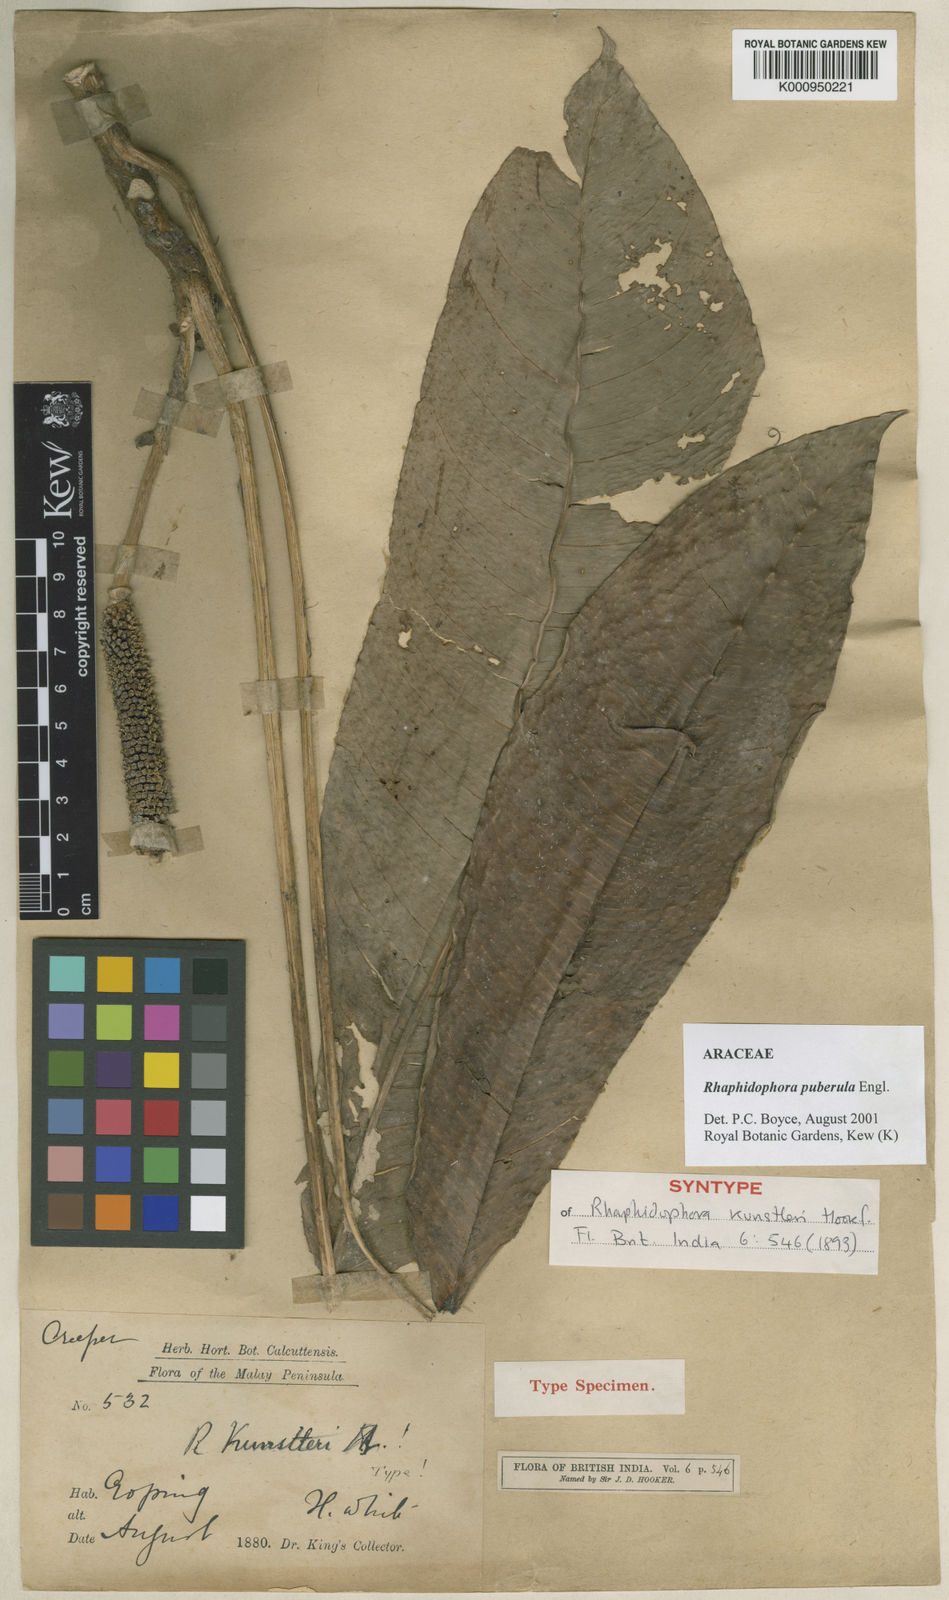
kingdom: Plantae
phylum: Tracheophyta
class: Liliopsida
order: Alismatales
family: Araceae
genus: Rhaphidophora
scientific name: Rhaphidophora puberula
